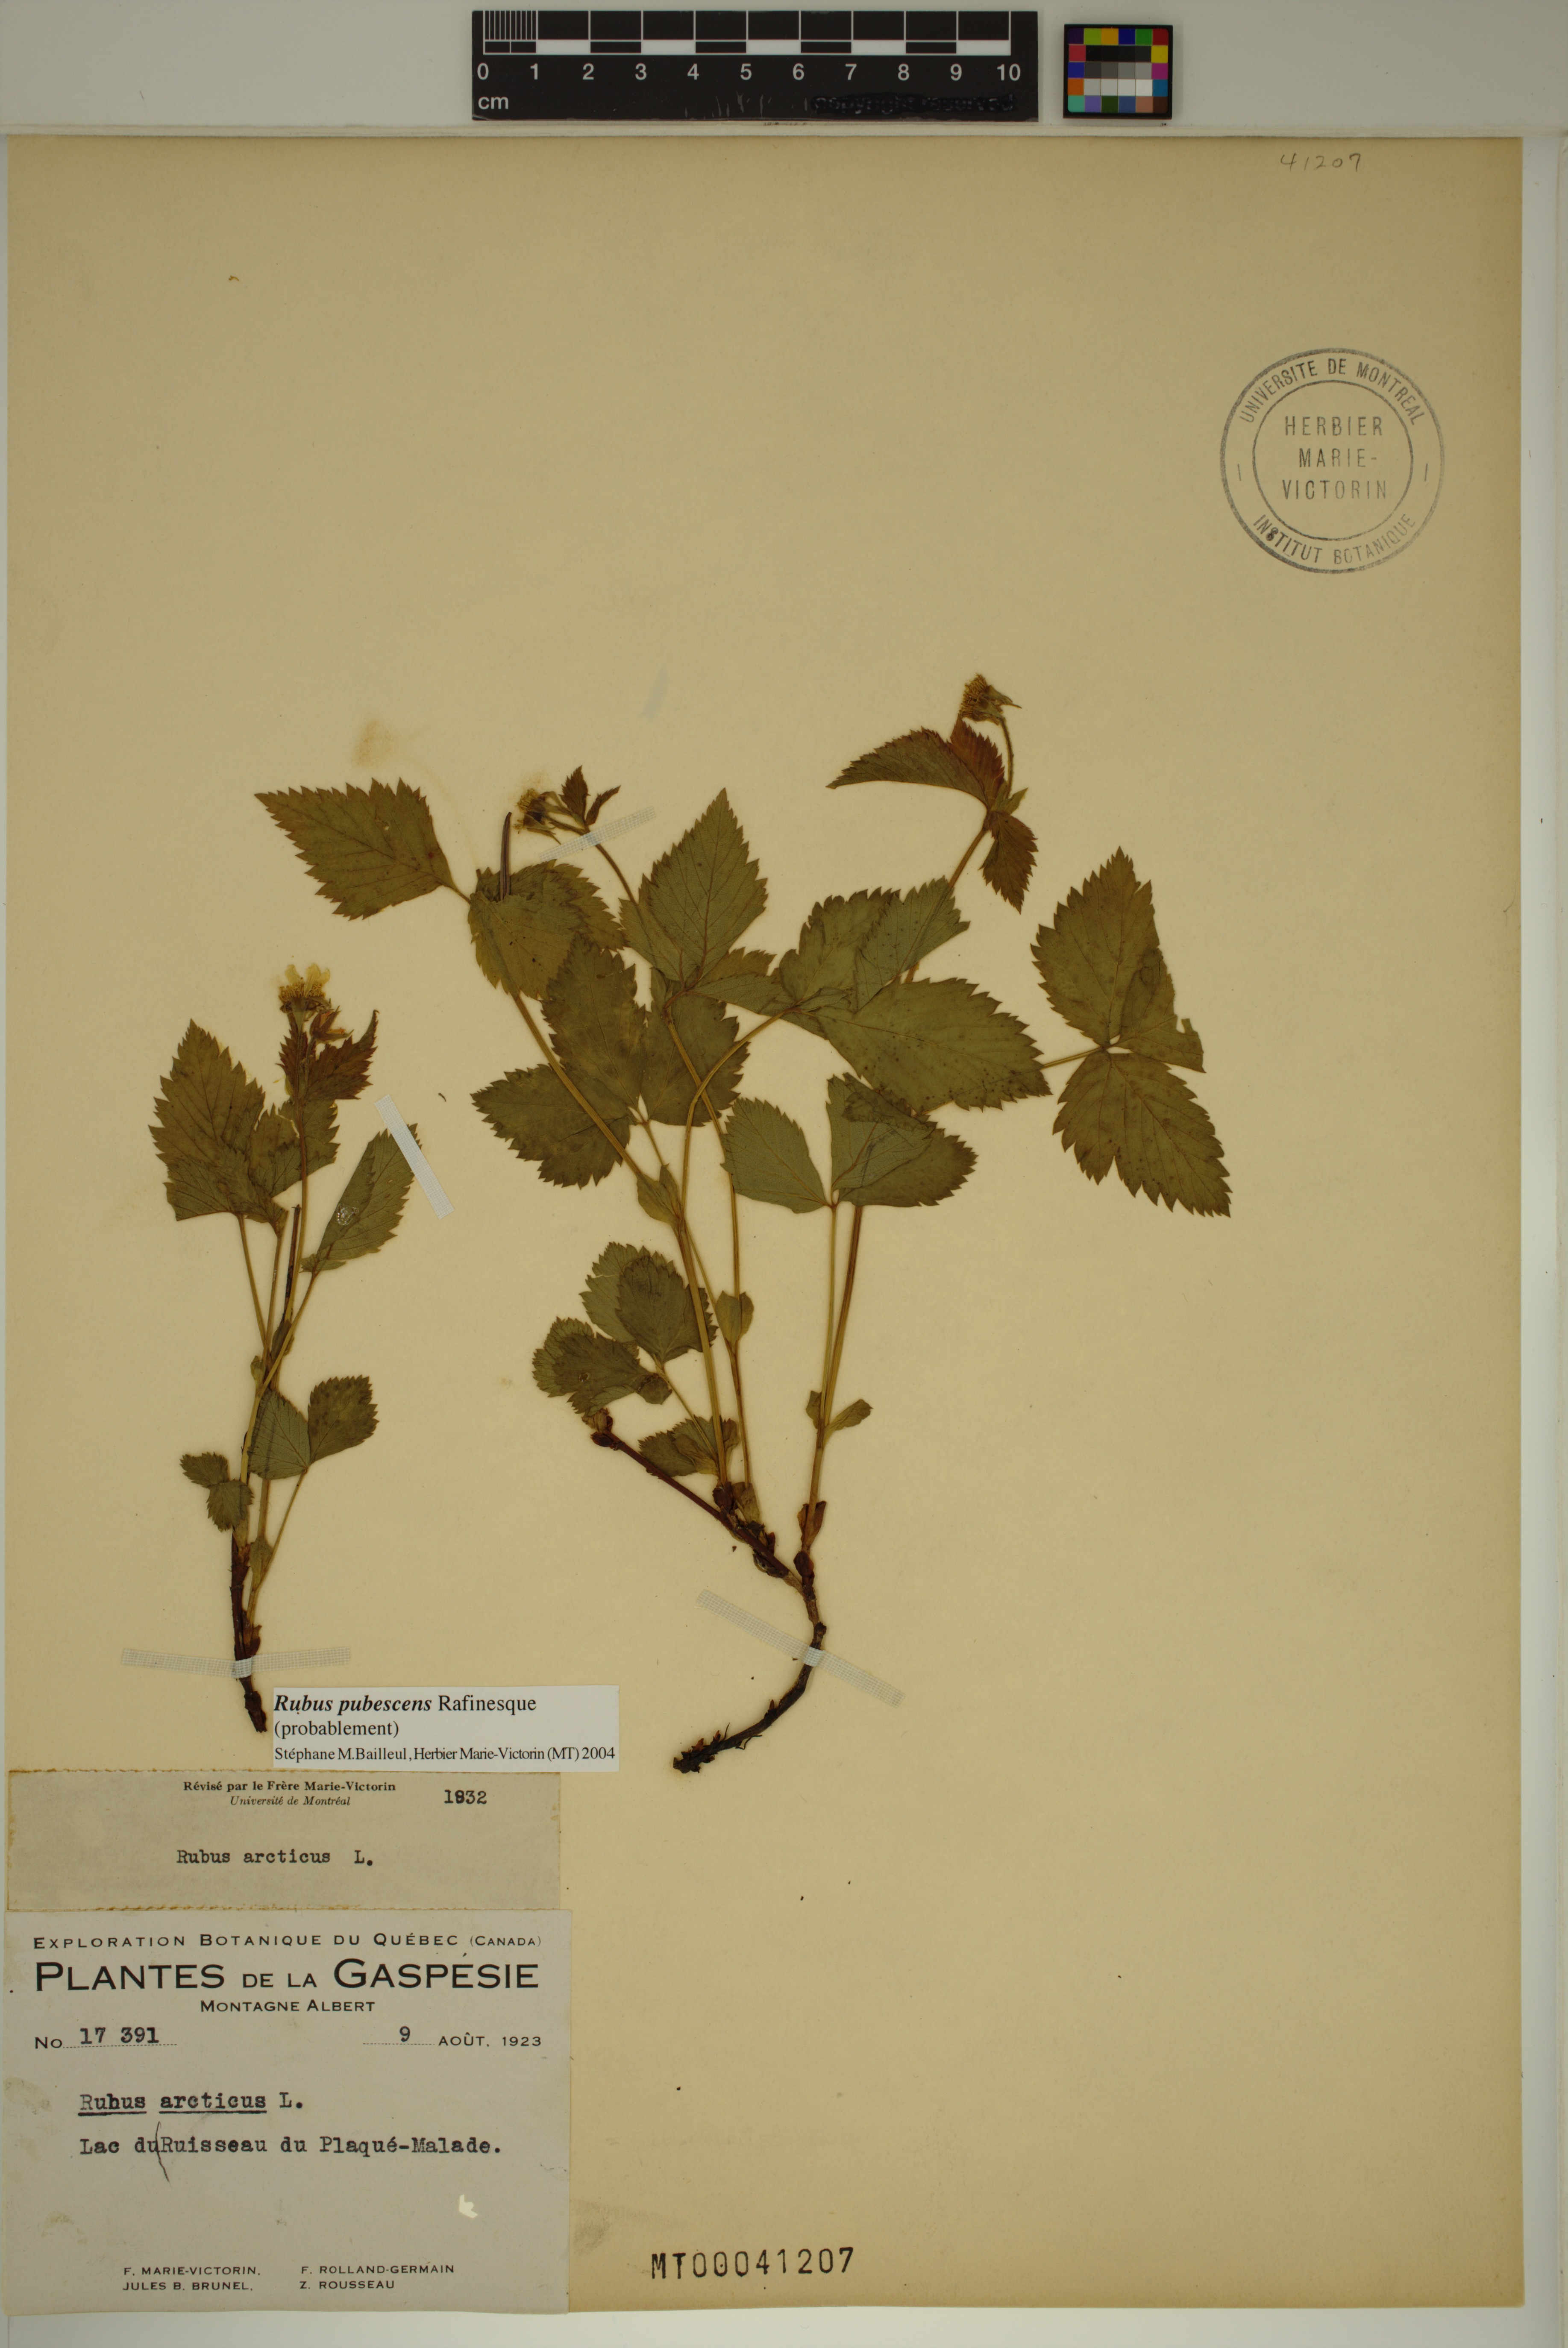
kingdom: Plantae
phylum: Tracheophyta
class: Magnoliopsida
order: Rosales
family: Rosaceae
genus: Rubus
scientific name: Rubus pubescens
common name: Dwarf raspberry
